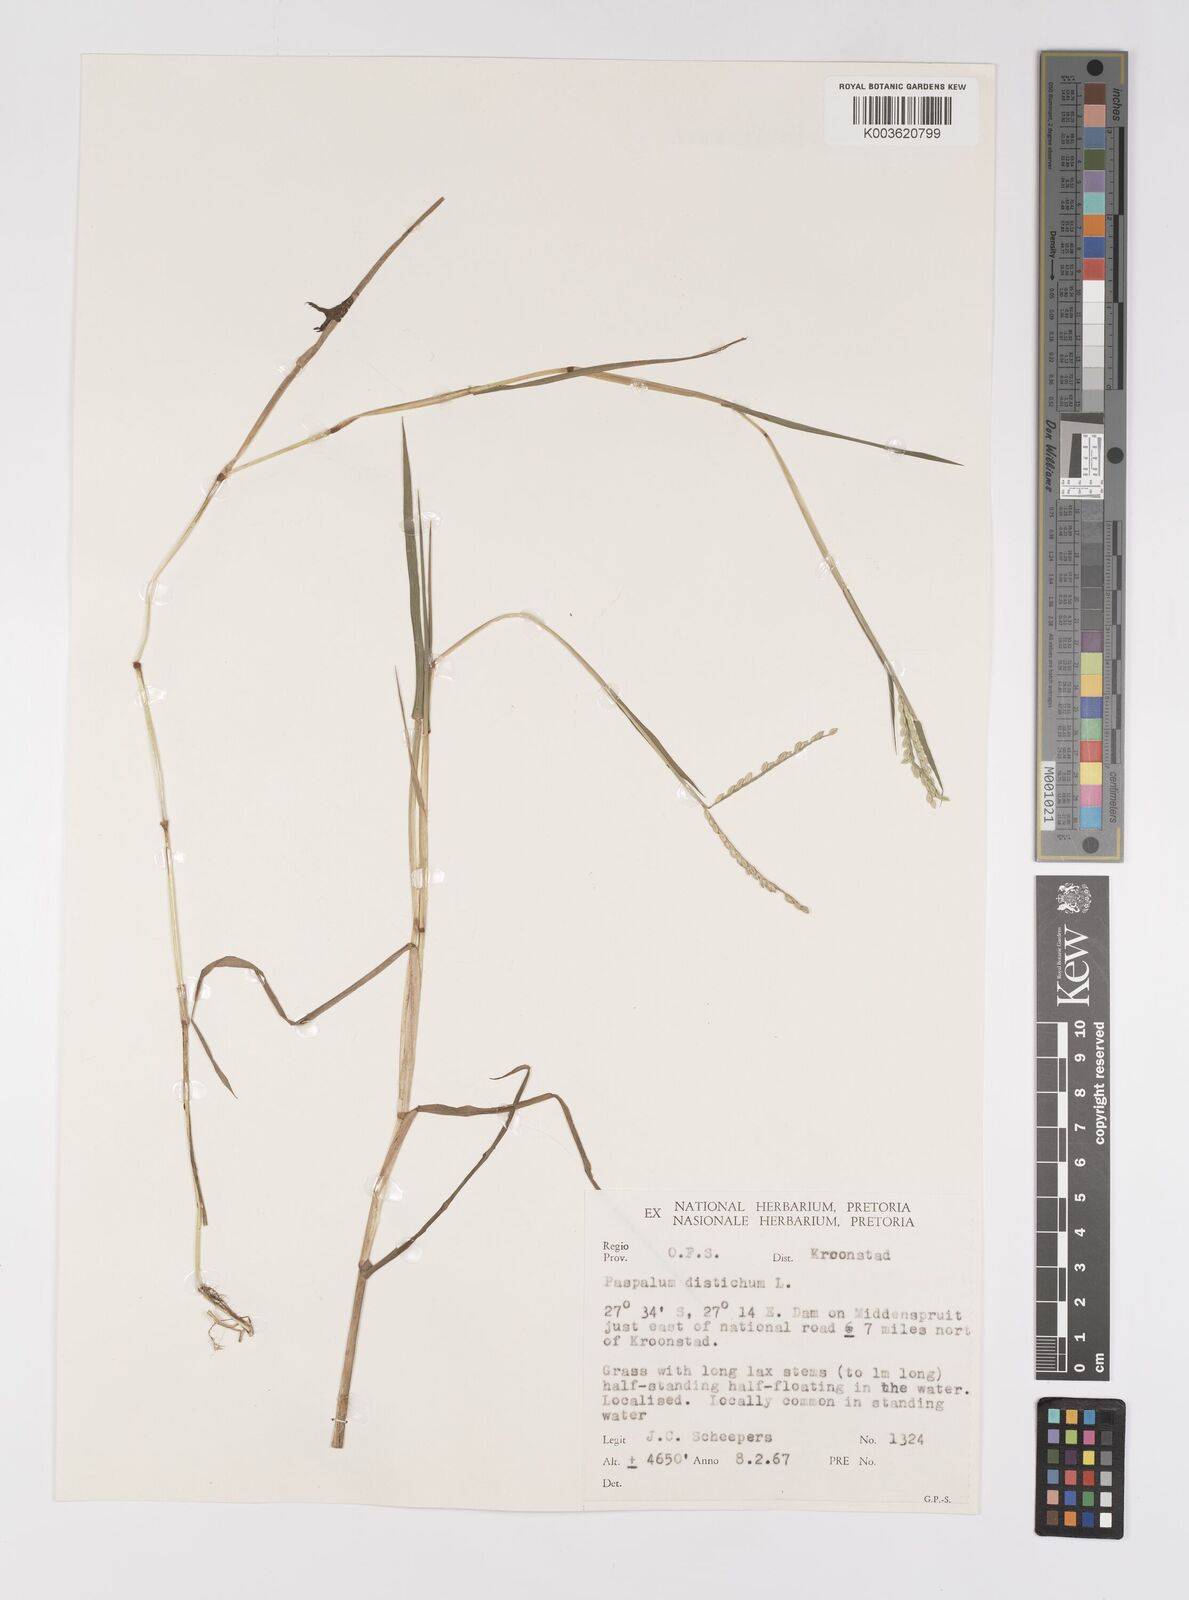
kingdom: Plantae
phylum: Tracheophyta
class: Liliopsida
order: Poales
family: Poaceae
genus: Paspalum
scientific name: Paspalum distichum
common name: Knotgrass
